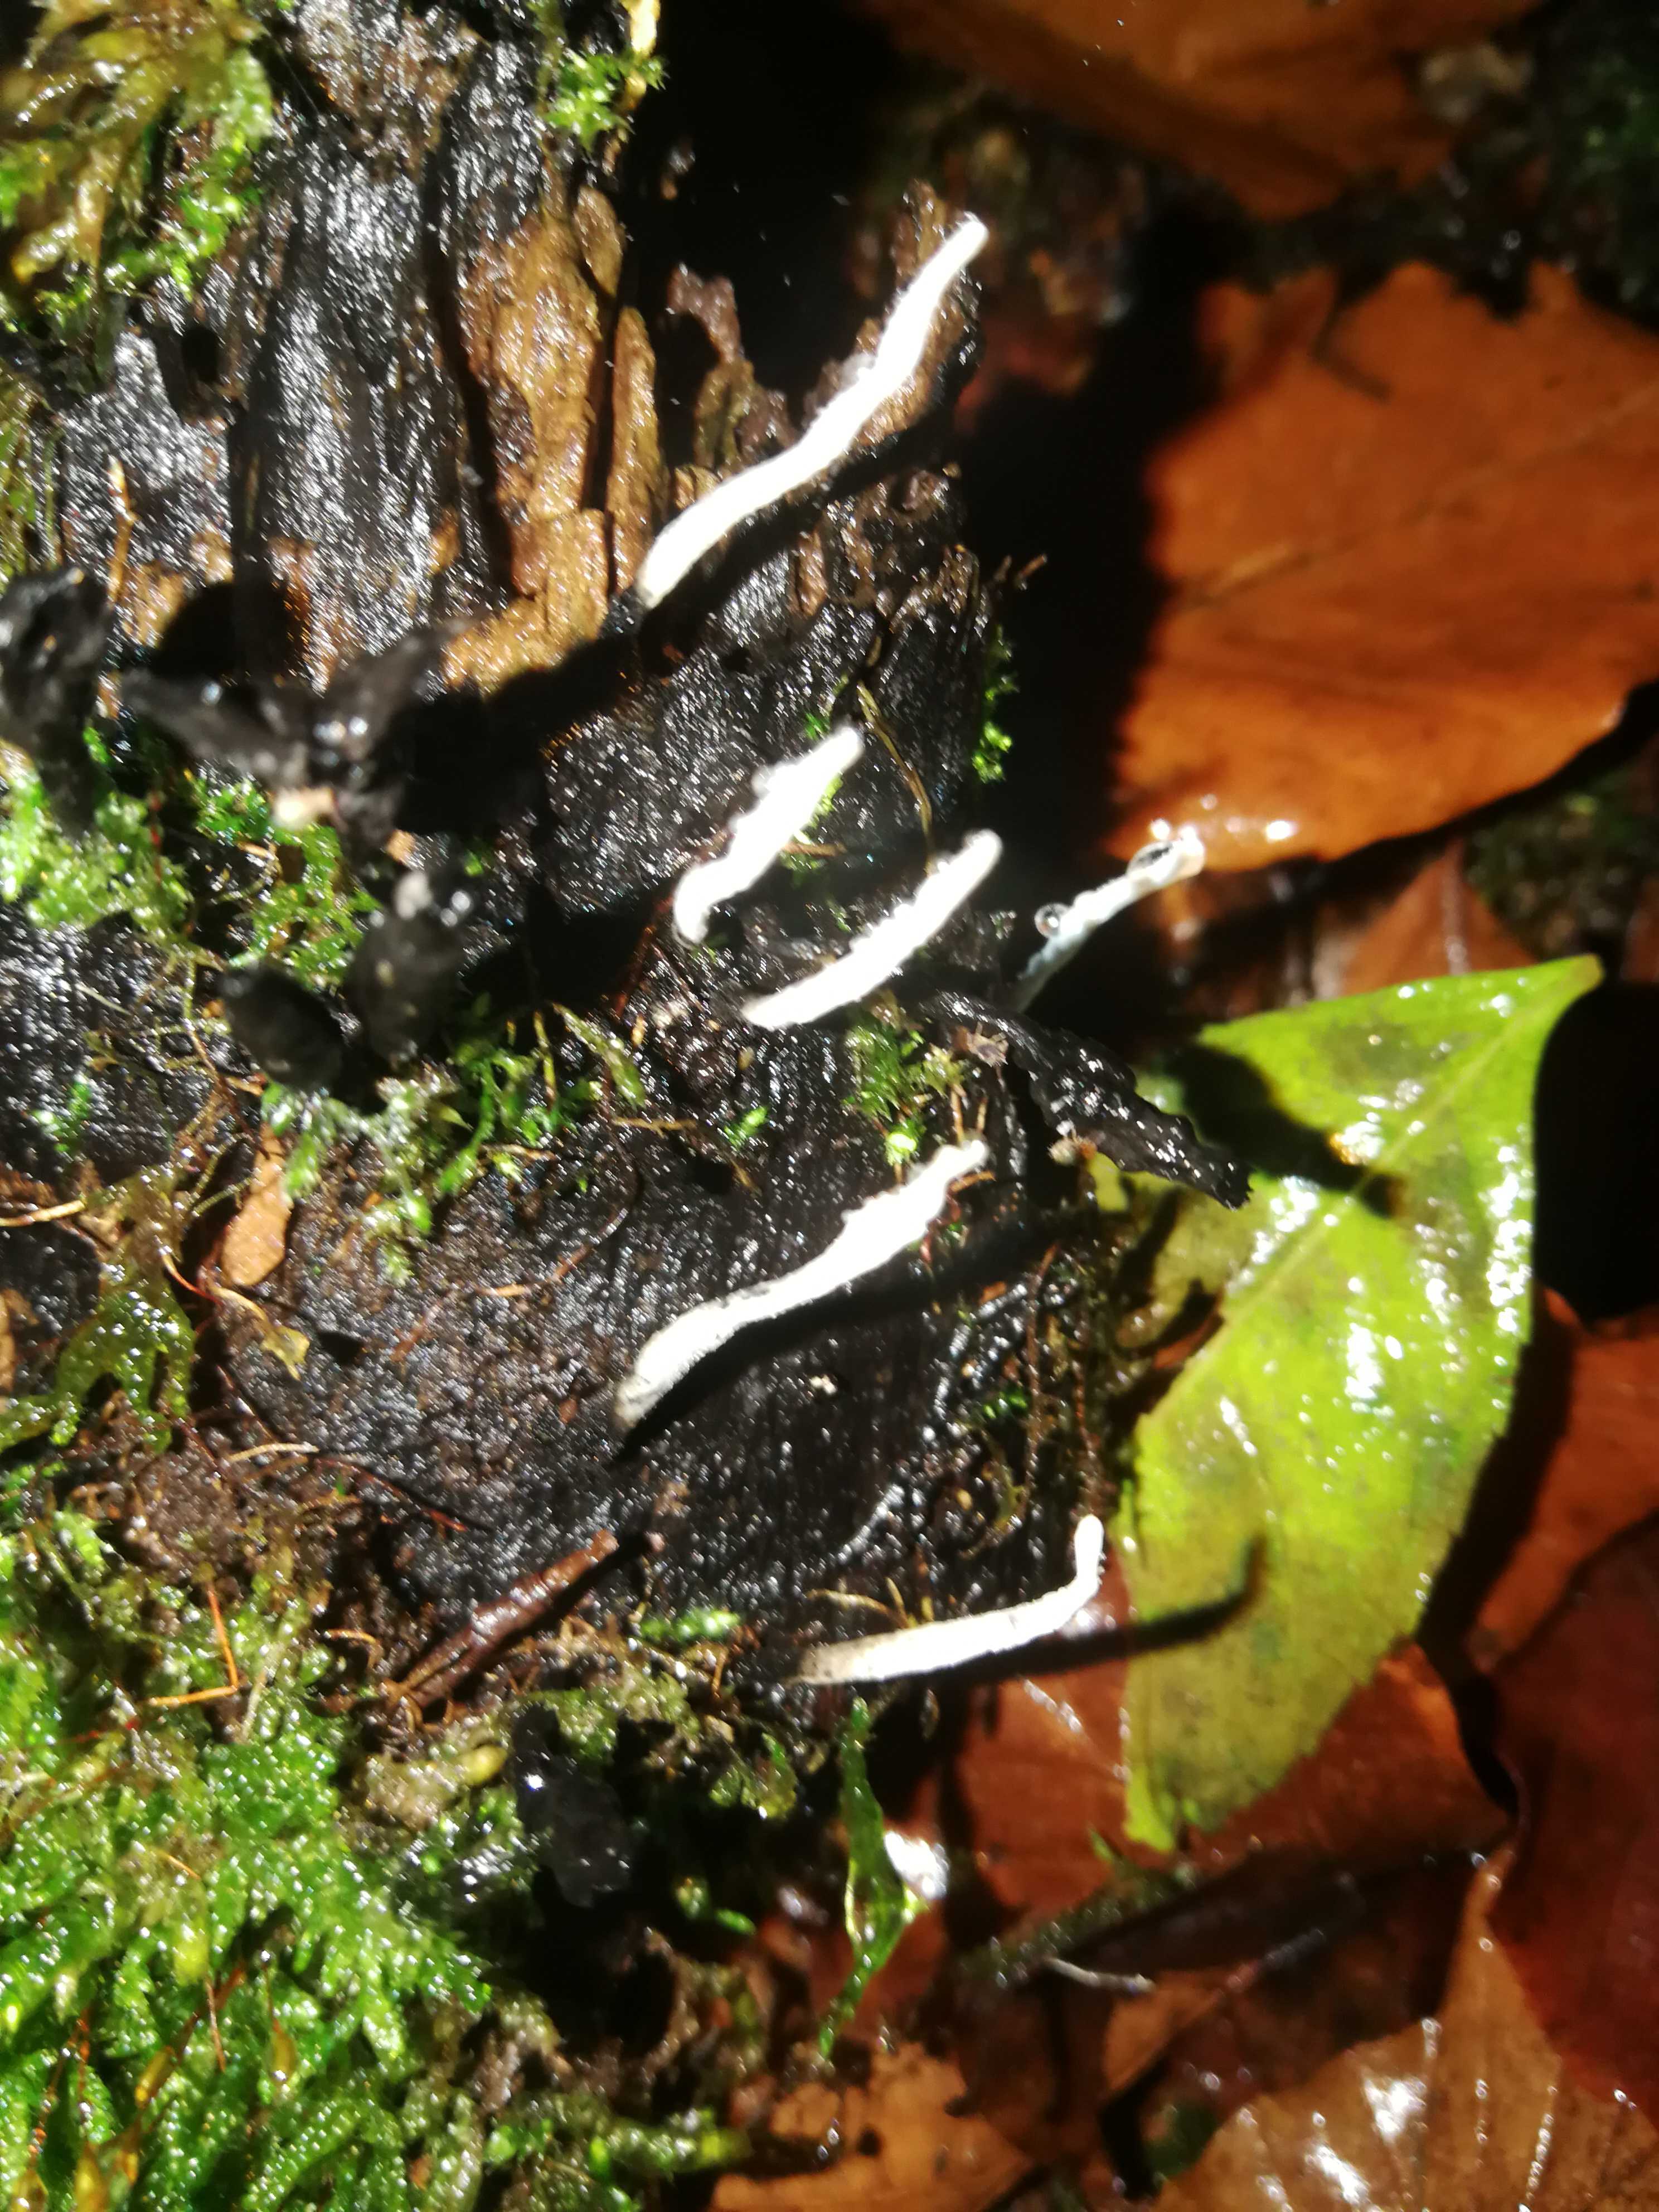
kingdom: Fungi
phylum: Ascomycota
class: Sordariomycetes
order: Xylariales
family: Xylariaceae
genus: Xylaria
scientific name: Xylaria hypoxylon
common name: grenet stødsvamp
